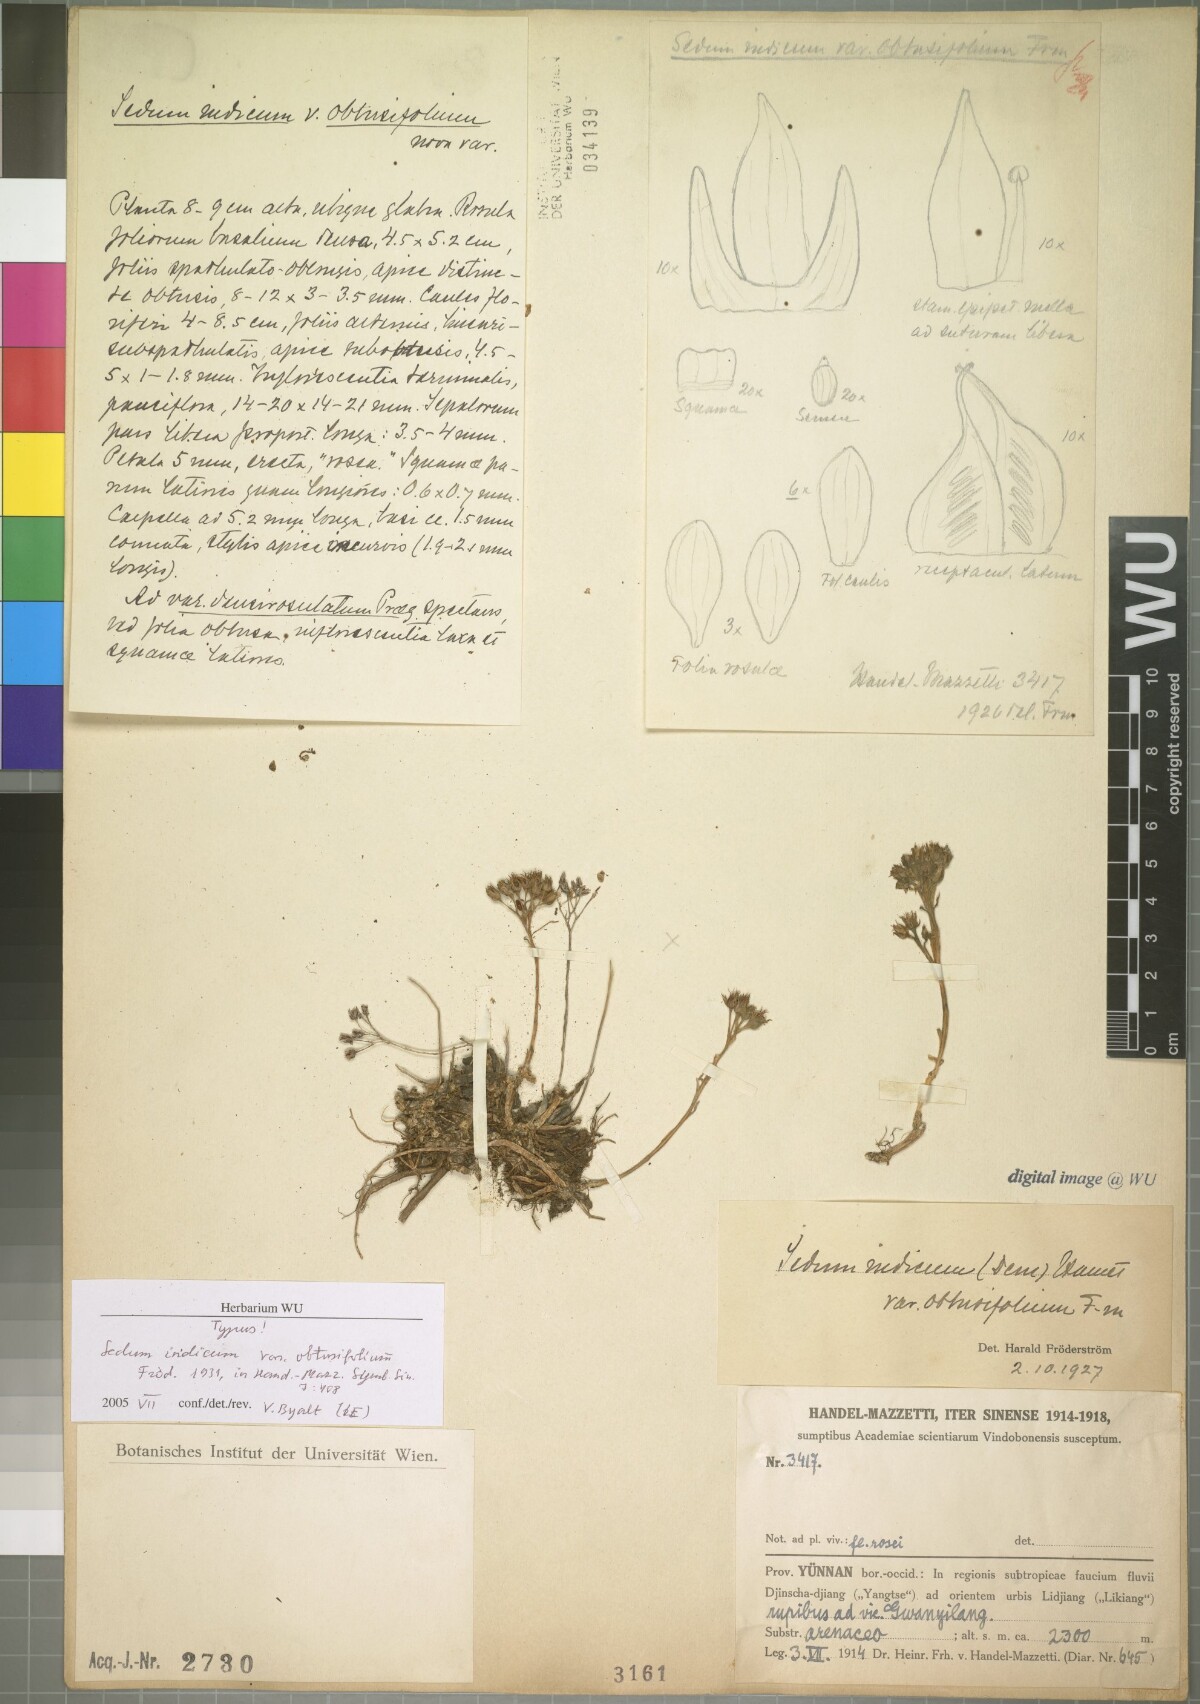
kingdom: Plantae
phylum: Tracheophyta
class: Magnoliopsida
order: Saxifragales
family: Crassulaceae
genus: Sinocrassula
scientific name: Sinocrassula indica
